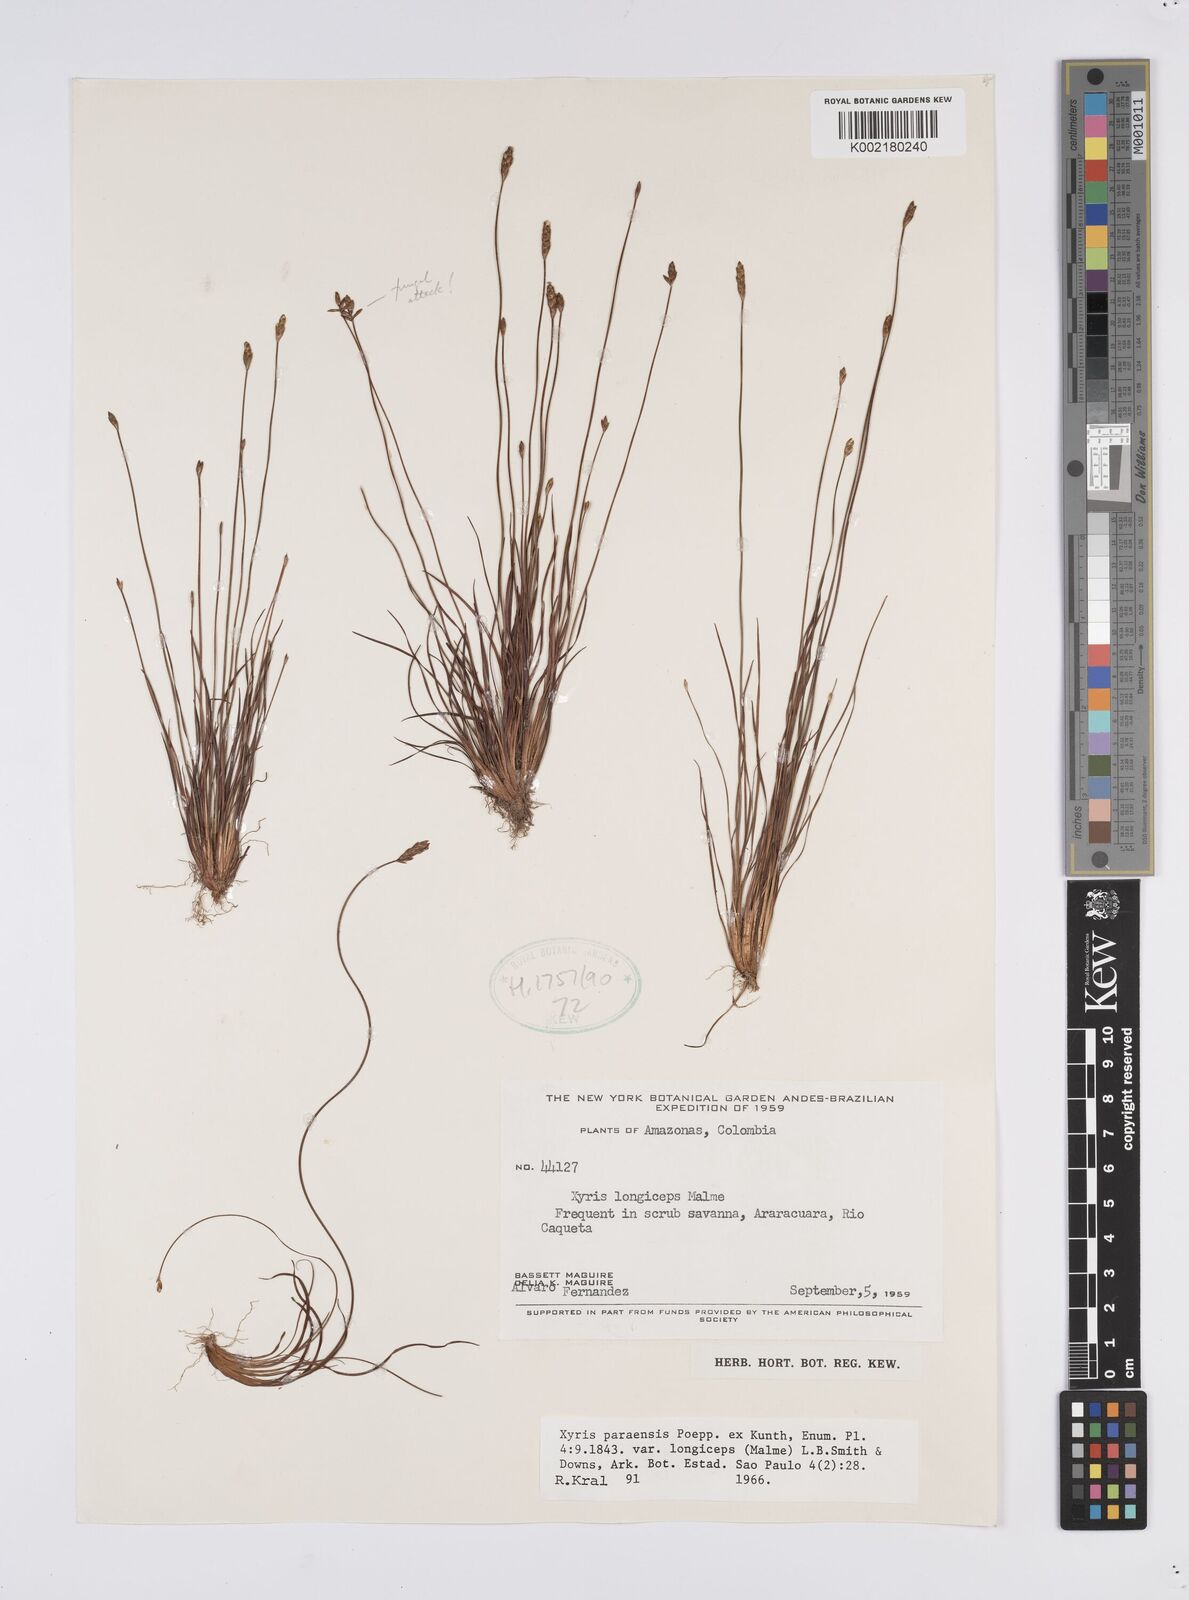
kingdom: Plantae
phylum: Tracheophyta
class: Liliopsida
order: Poales
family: Xyridaceae
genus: Xyris
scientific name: Xyris paraensis
